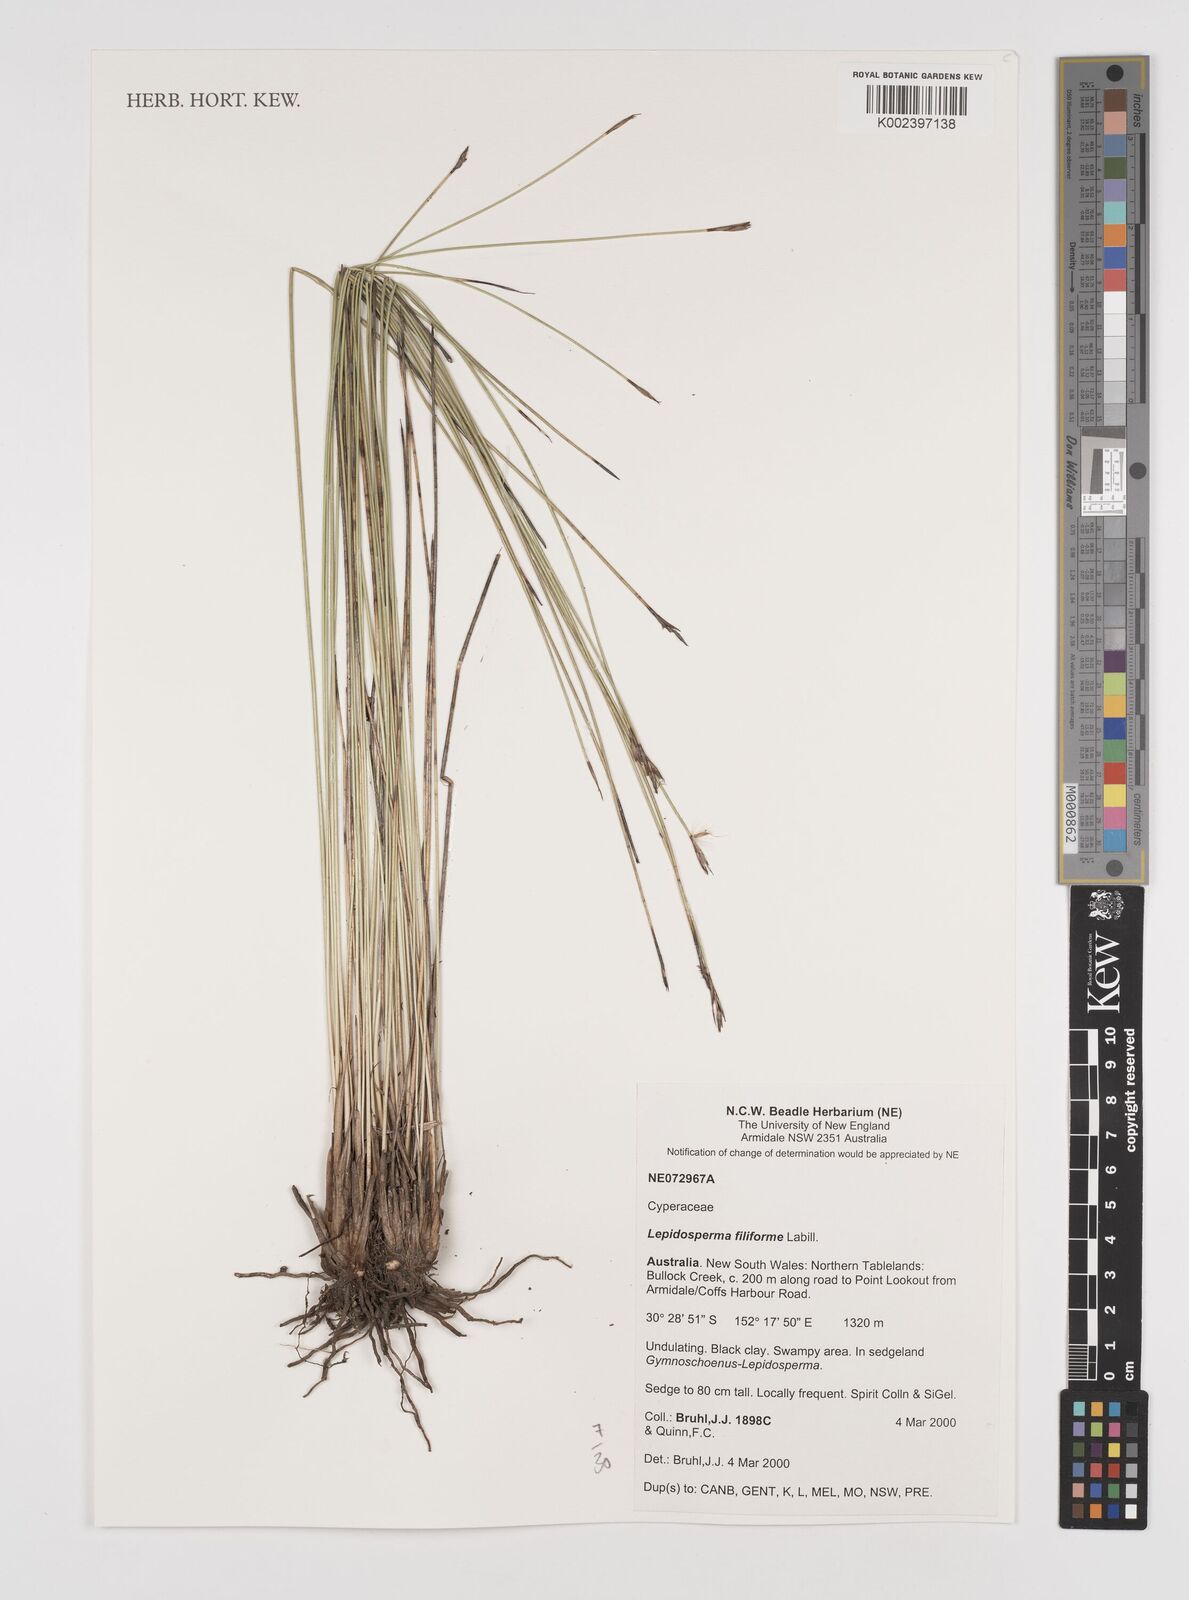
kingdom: Plantae
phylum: Tracheophyta
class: Liliopsida
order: Poales
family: Cyperaceae
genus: Lepidosperma
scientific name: Lepidosperma filiforme
